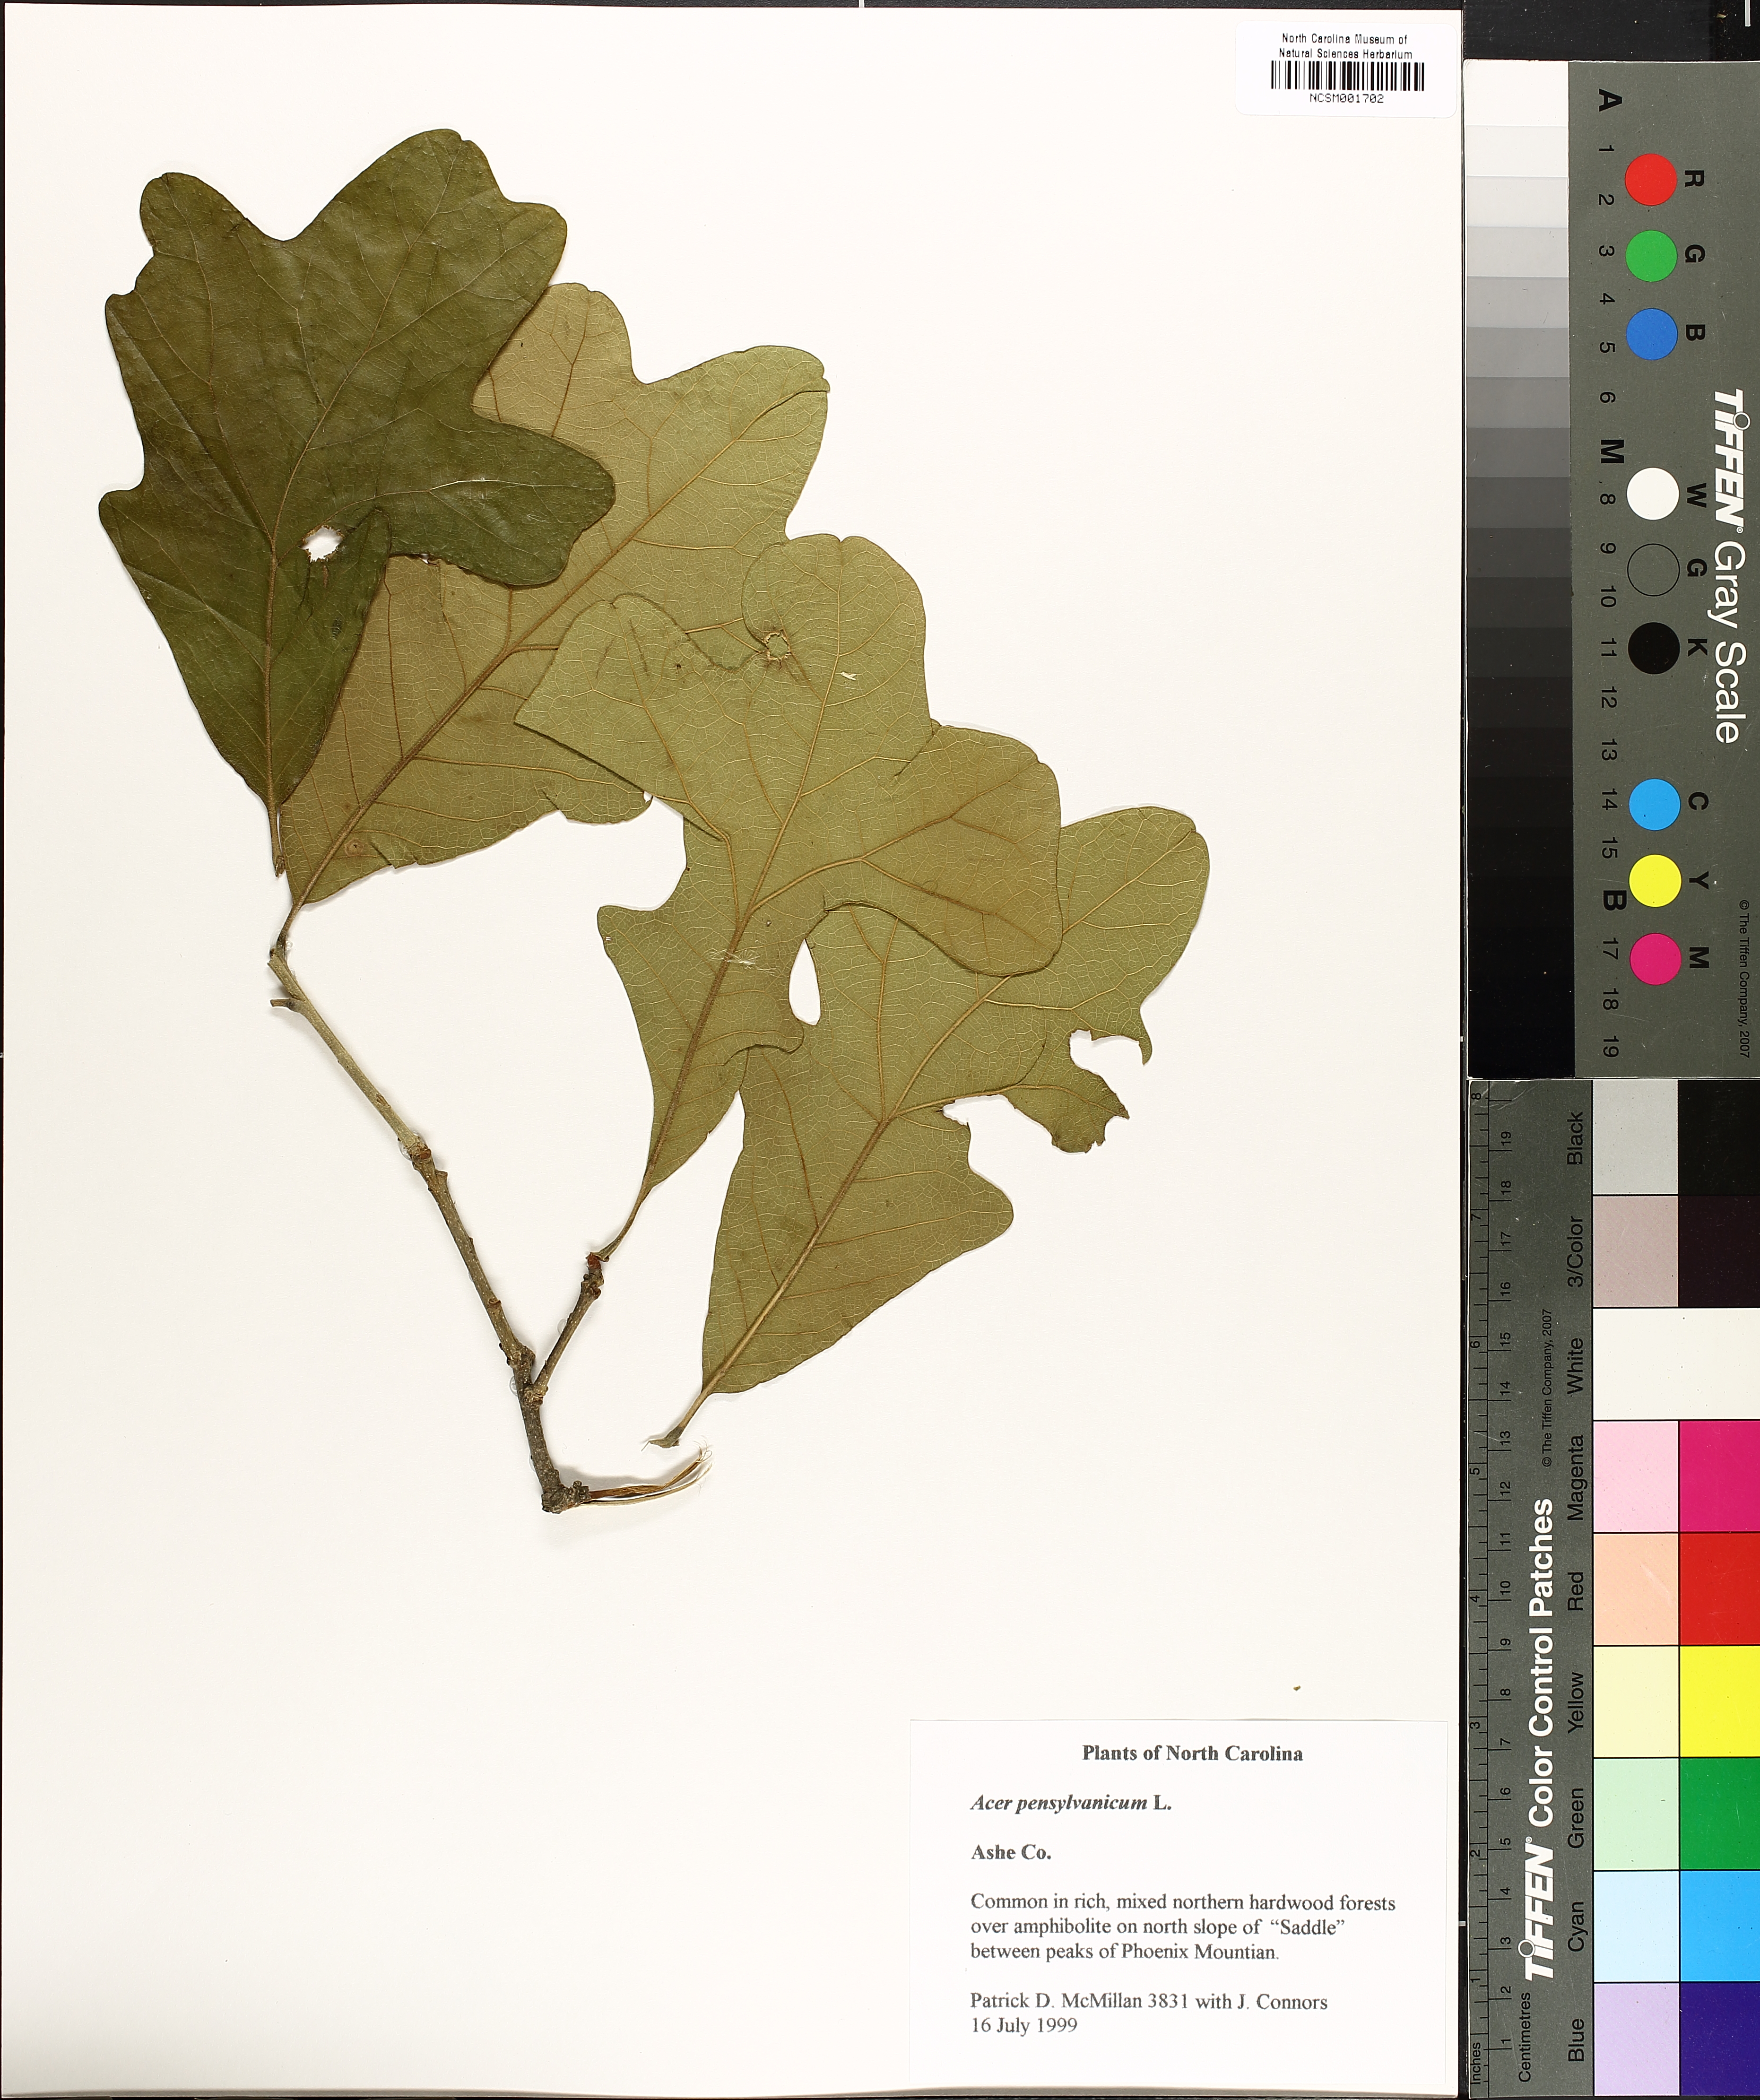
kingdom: Plantae
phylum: Tracheophyta
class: Magnoliopsida
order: Fagales
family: Fagaceae
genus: Quercus
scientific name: Quercus stellata
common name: Post oak
